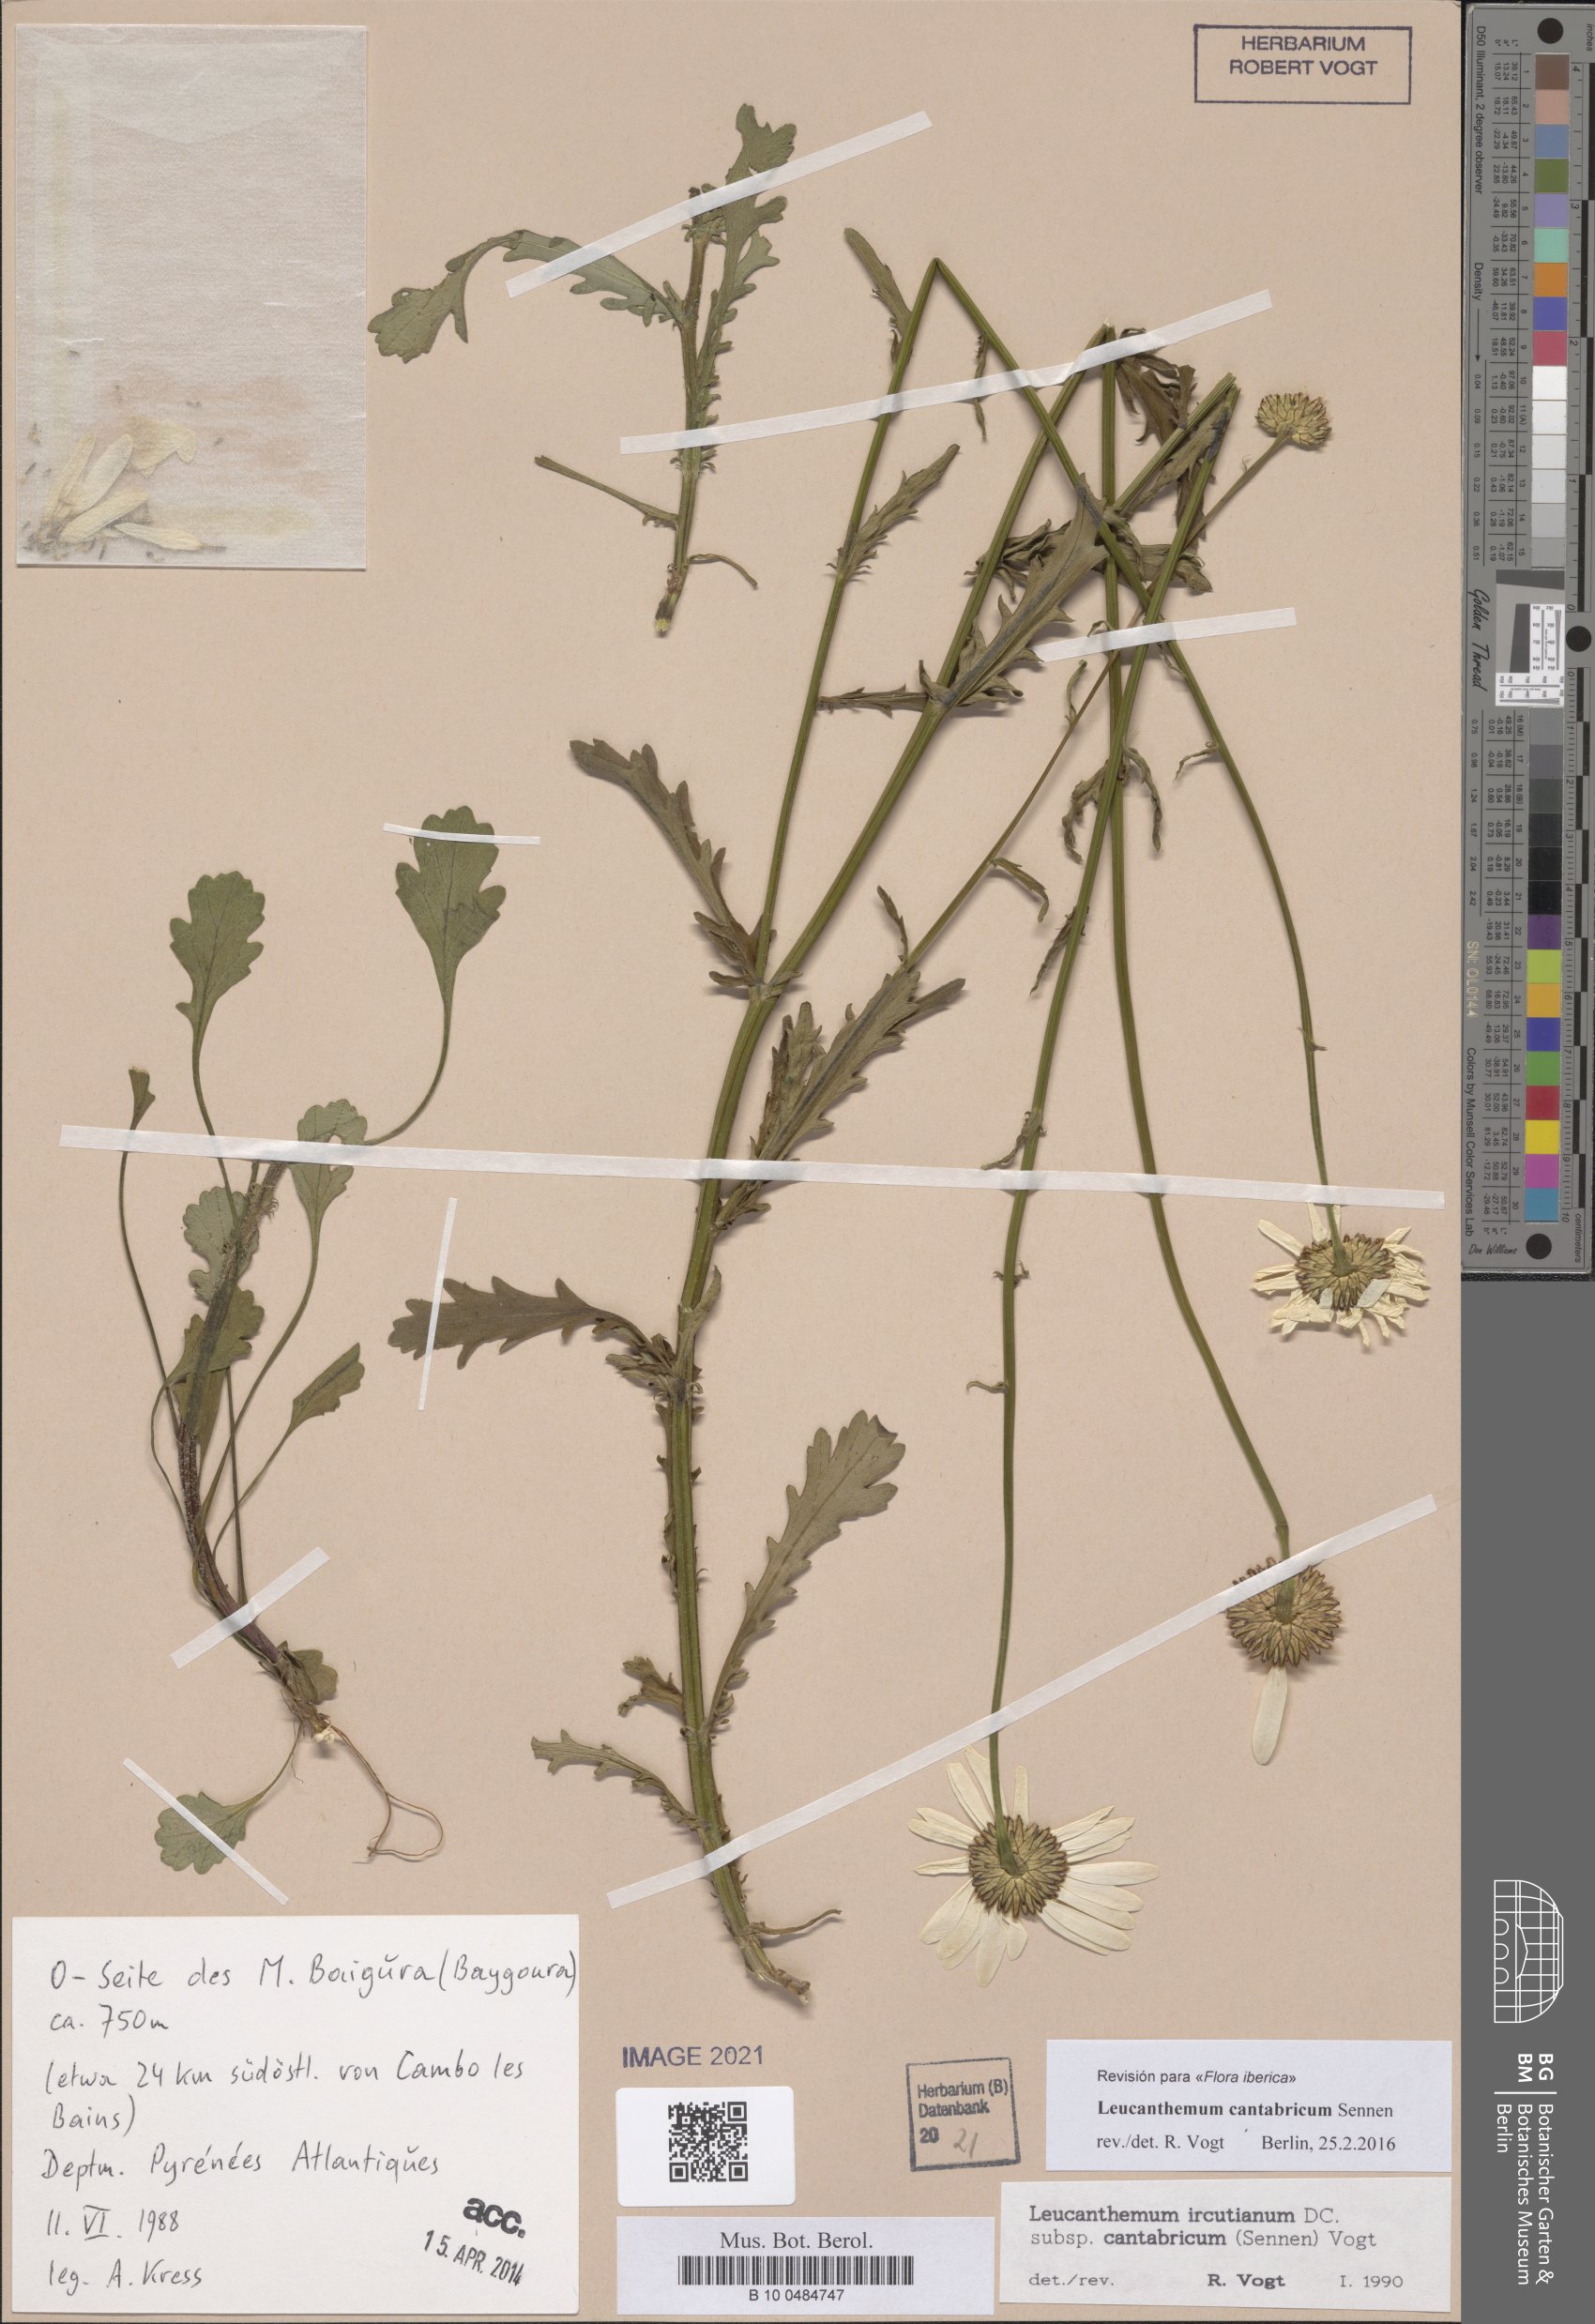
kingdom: Plantae
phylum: Tracheophyta
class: Magnoliopsida
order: Asterales
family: Asteraceae
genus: Leucanthemum
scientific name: Leucanthemum cantabricum
